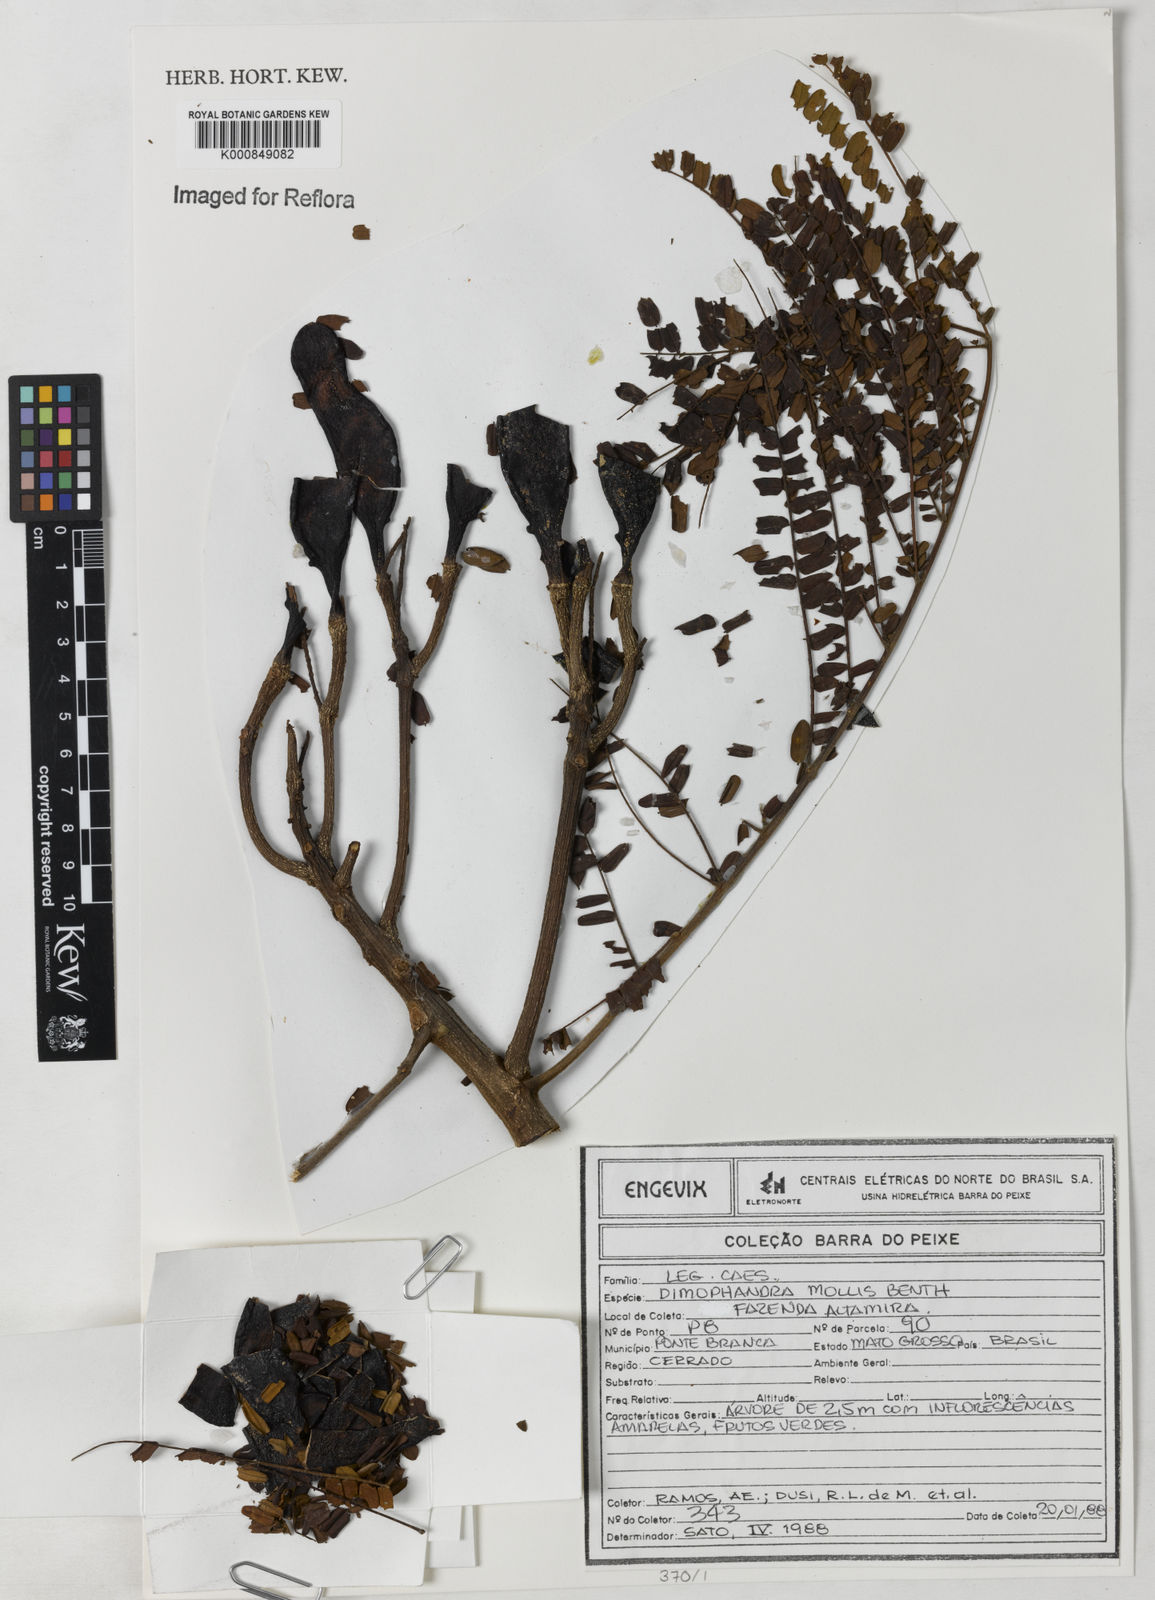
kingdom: Plantae
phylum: Tracheophyta
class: Magnoliopsida
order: Fabales
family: Fabaceae
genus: Dimorphandra
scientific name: Dimorphandra mollis
